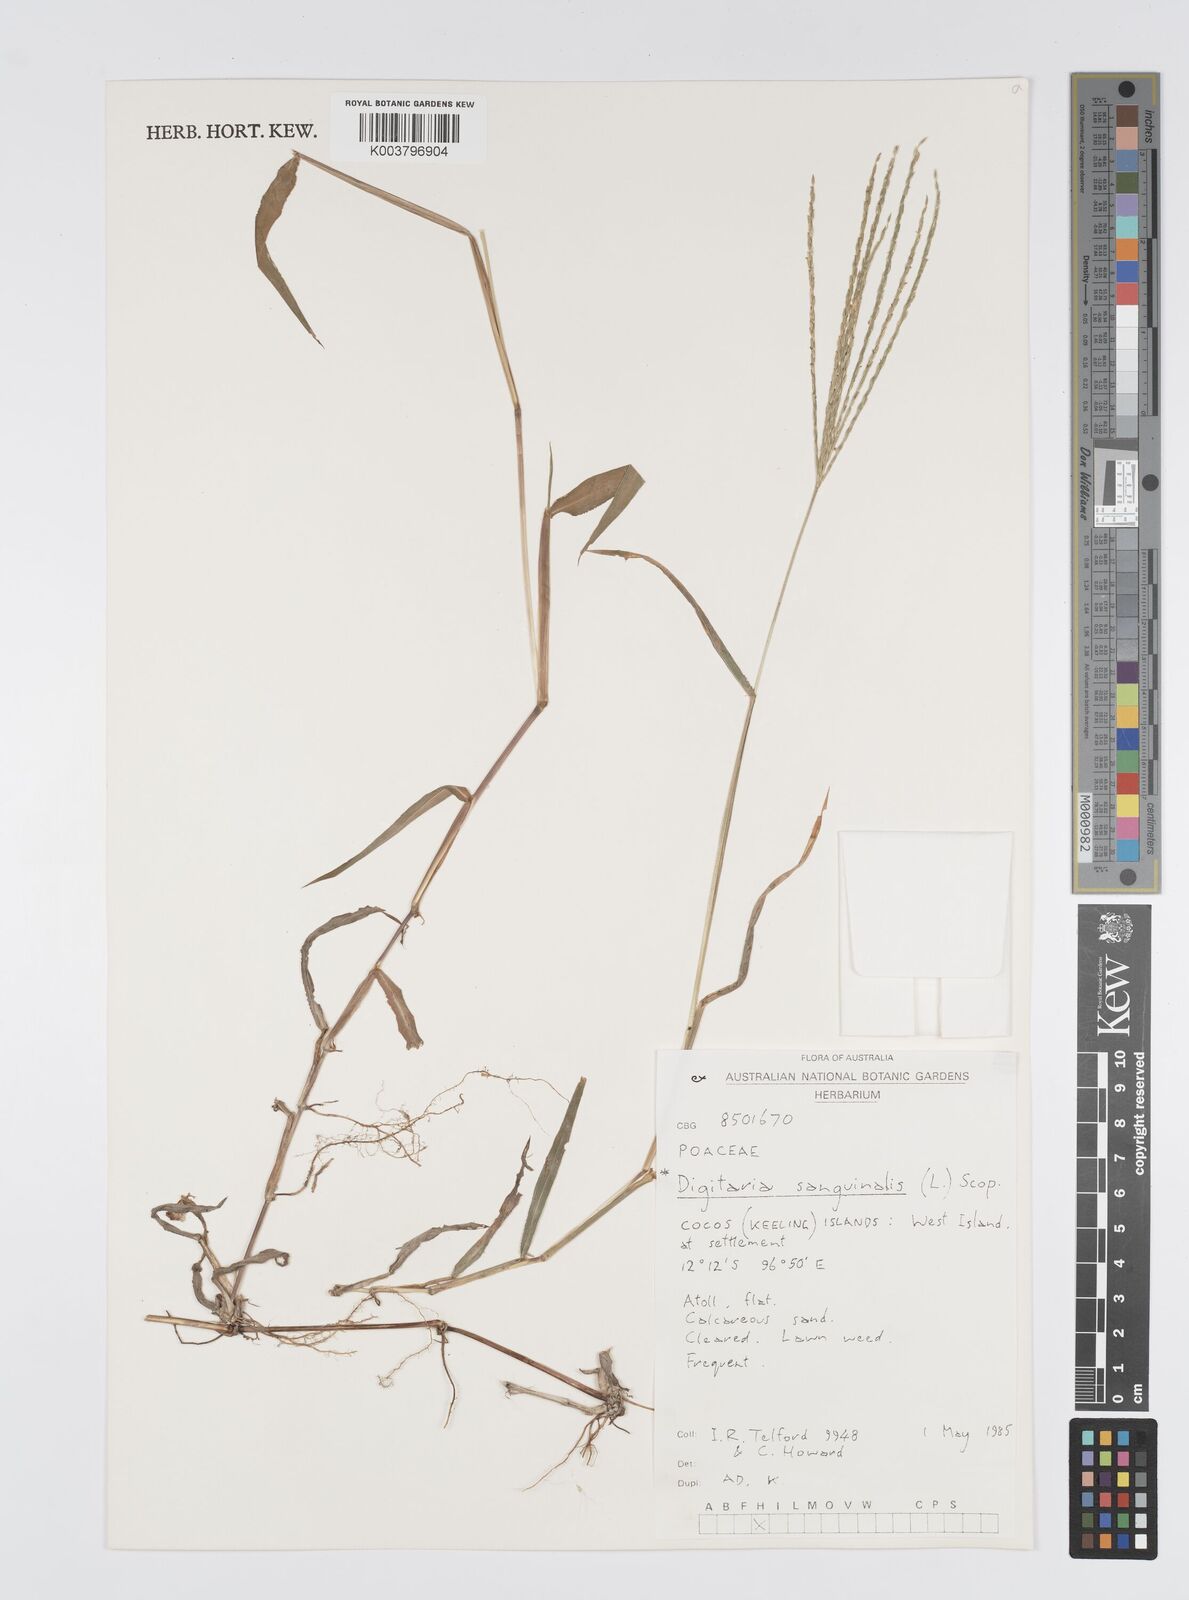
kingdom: Plantae
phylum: Tracheophyta
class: Liliopsida
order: Poales
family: Poaceae
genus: Digitaria
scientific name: Digitaria sanguinalis
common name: Hairy crabgrass
